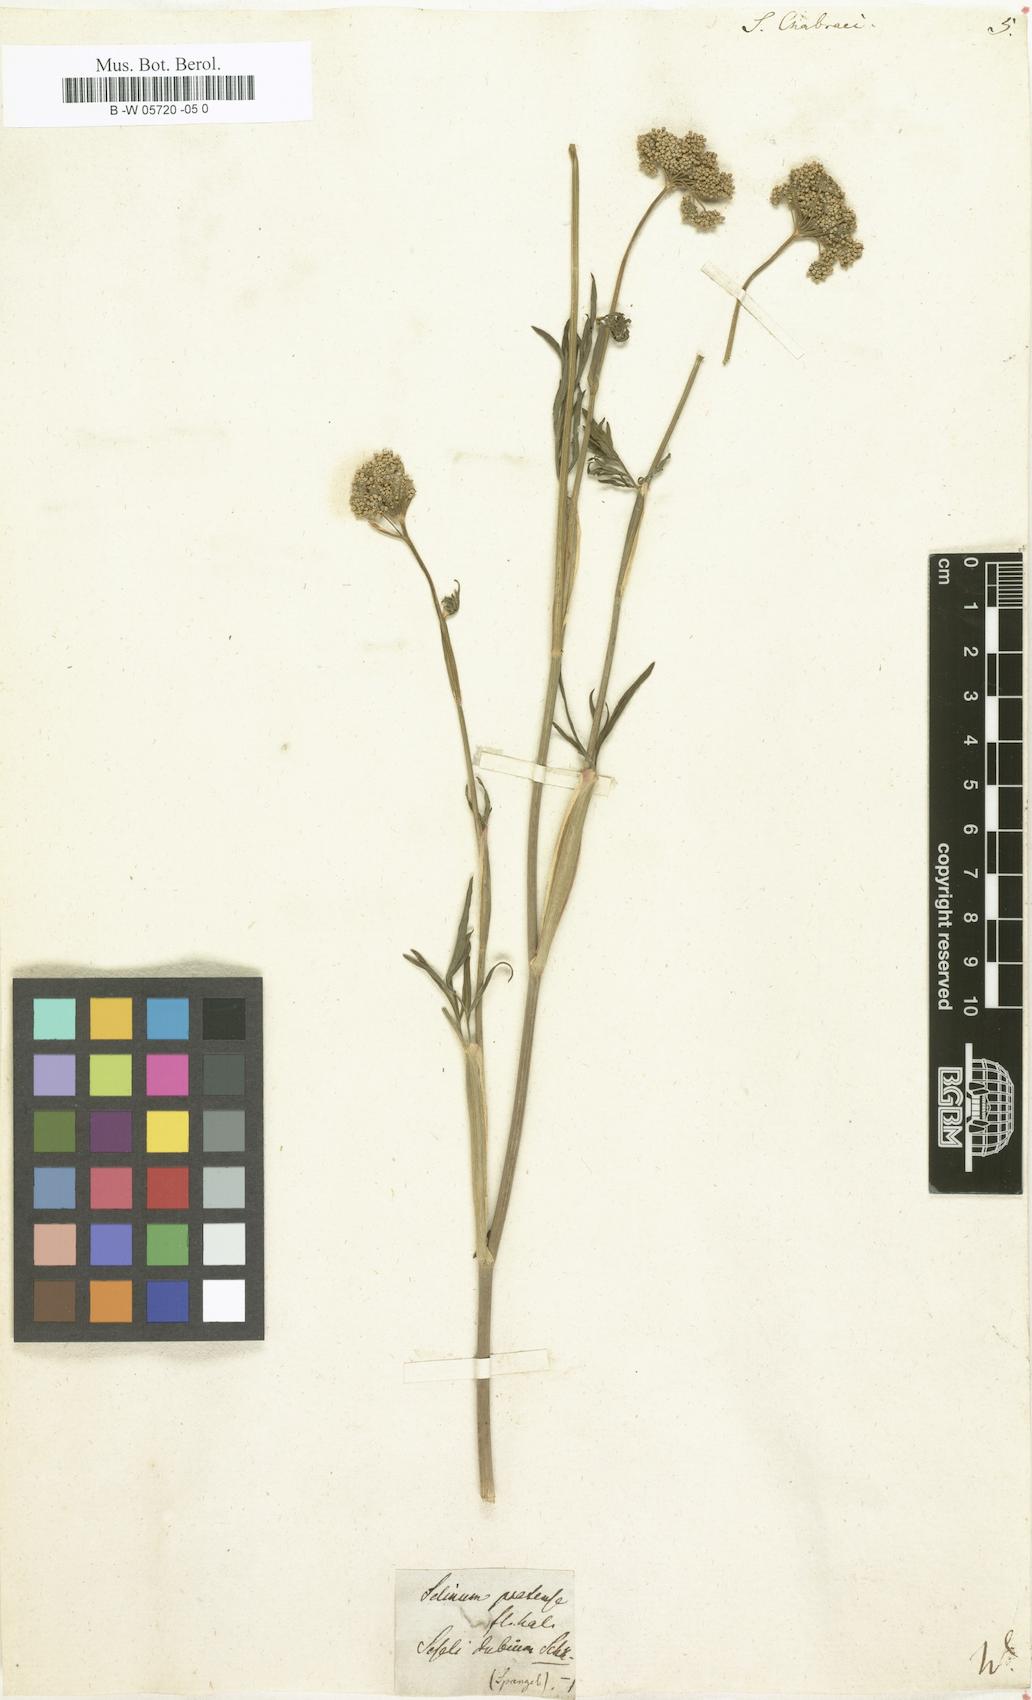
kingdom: Plantae
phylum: Tracheophyta
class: Magnoliopsida
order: Apiales
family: Apiaceae
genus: Selinum
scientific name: Selinum chabraei
